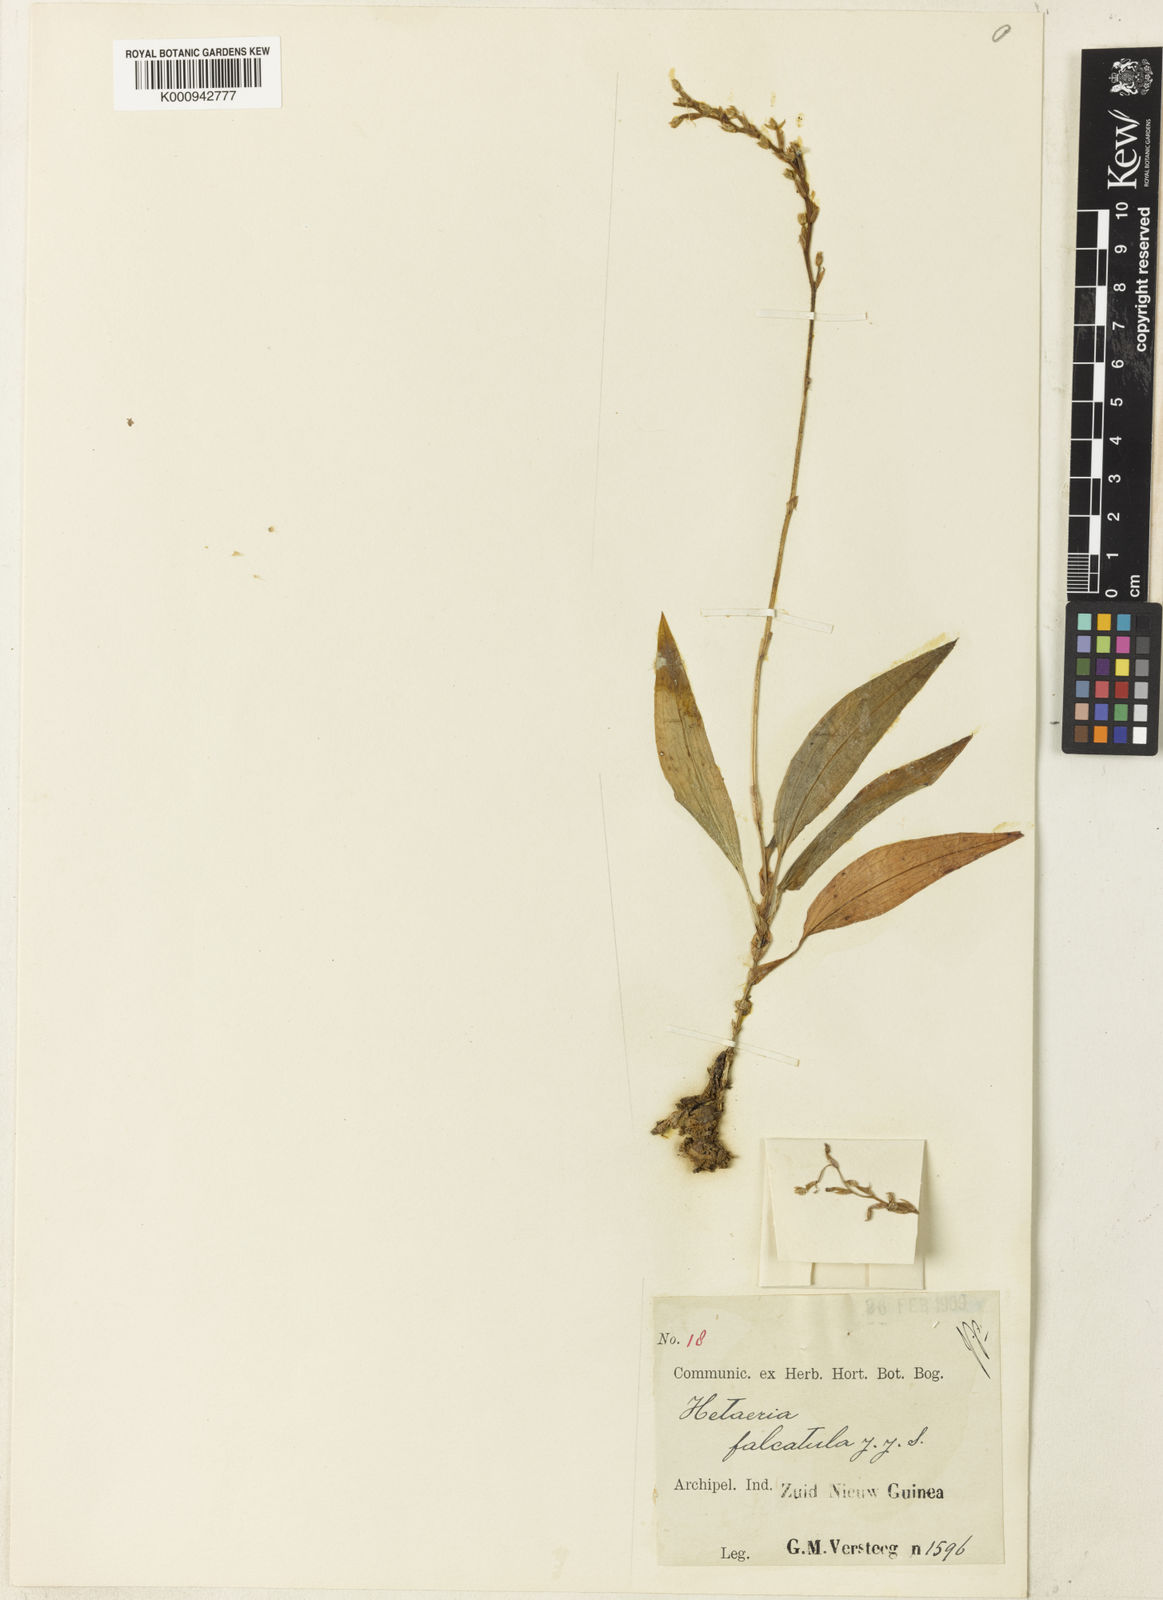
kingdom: Plantae
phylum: Tracheophyta
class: Liliopsida
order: Asparagales
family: Orchidaceae
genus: Rhomboda
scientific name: Rhomboda
